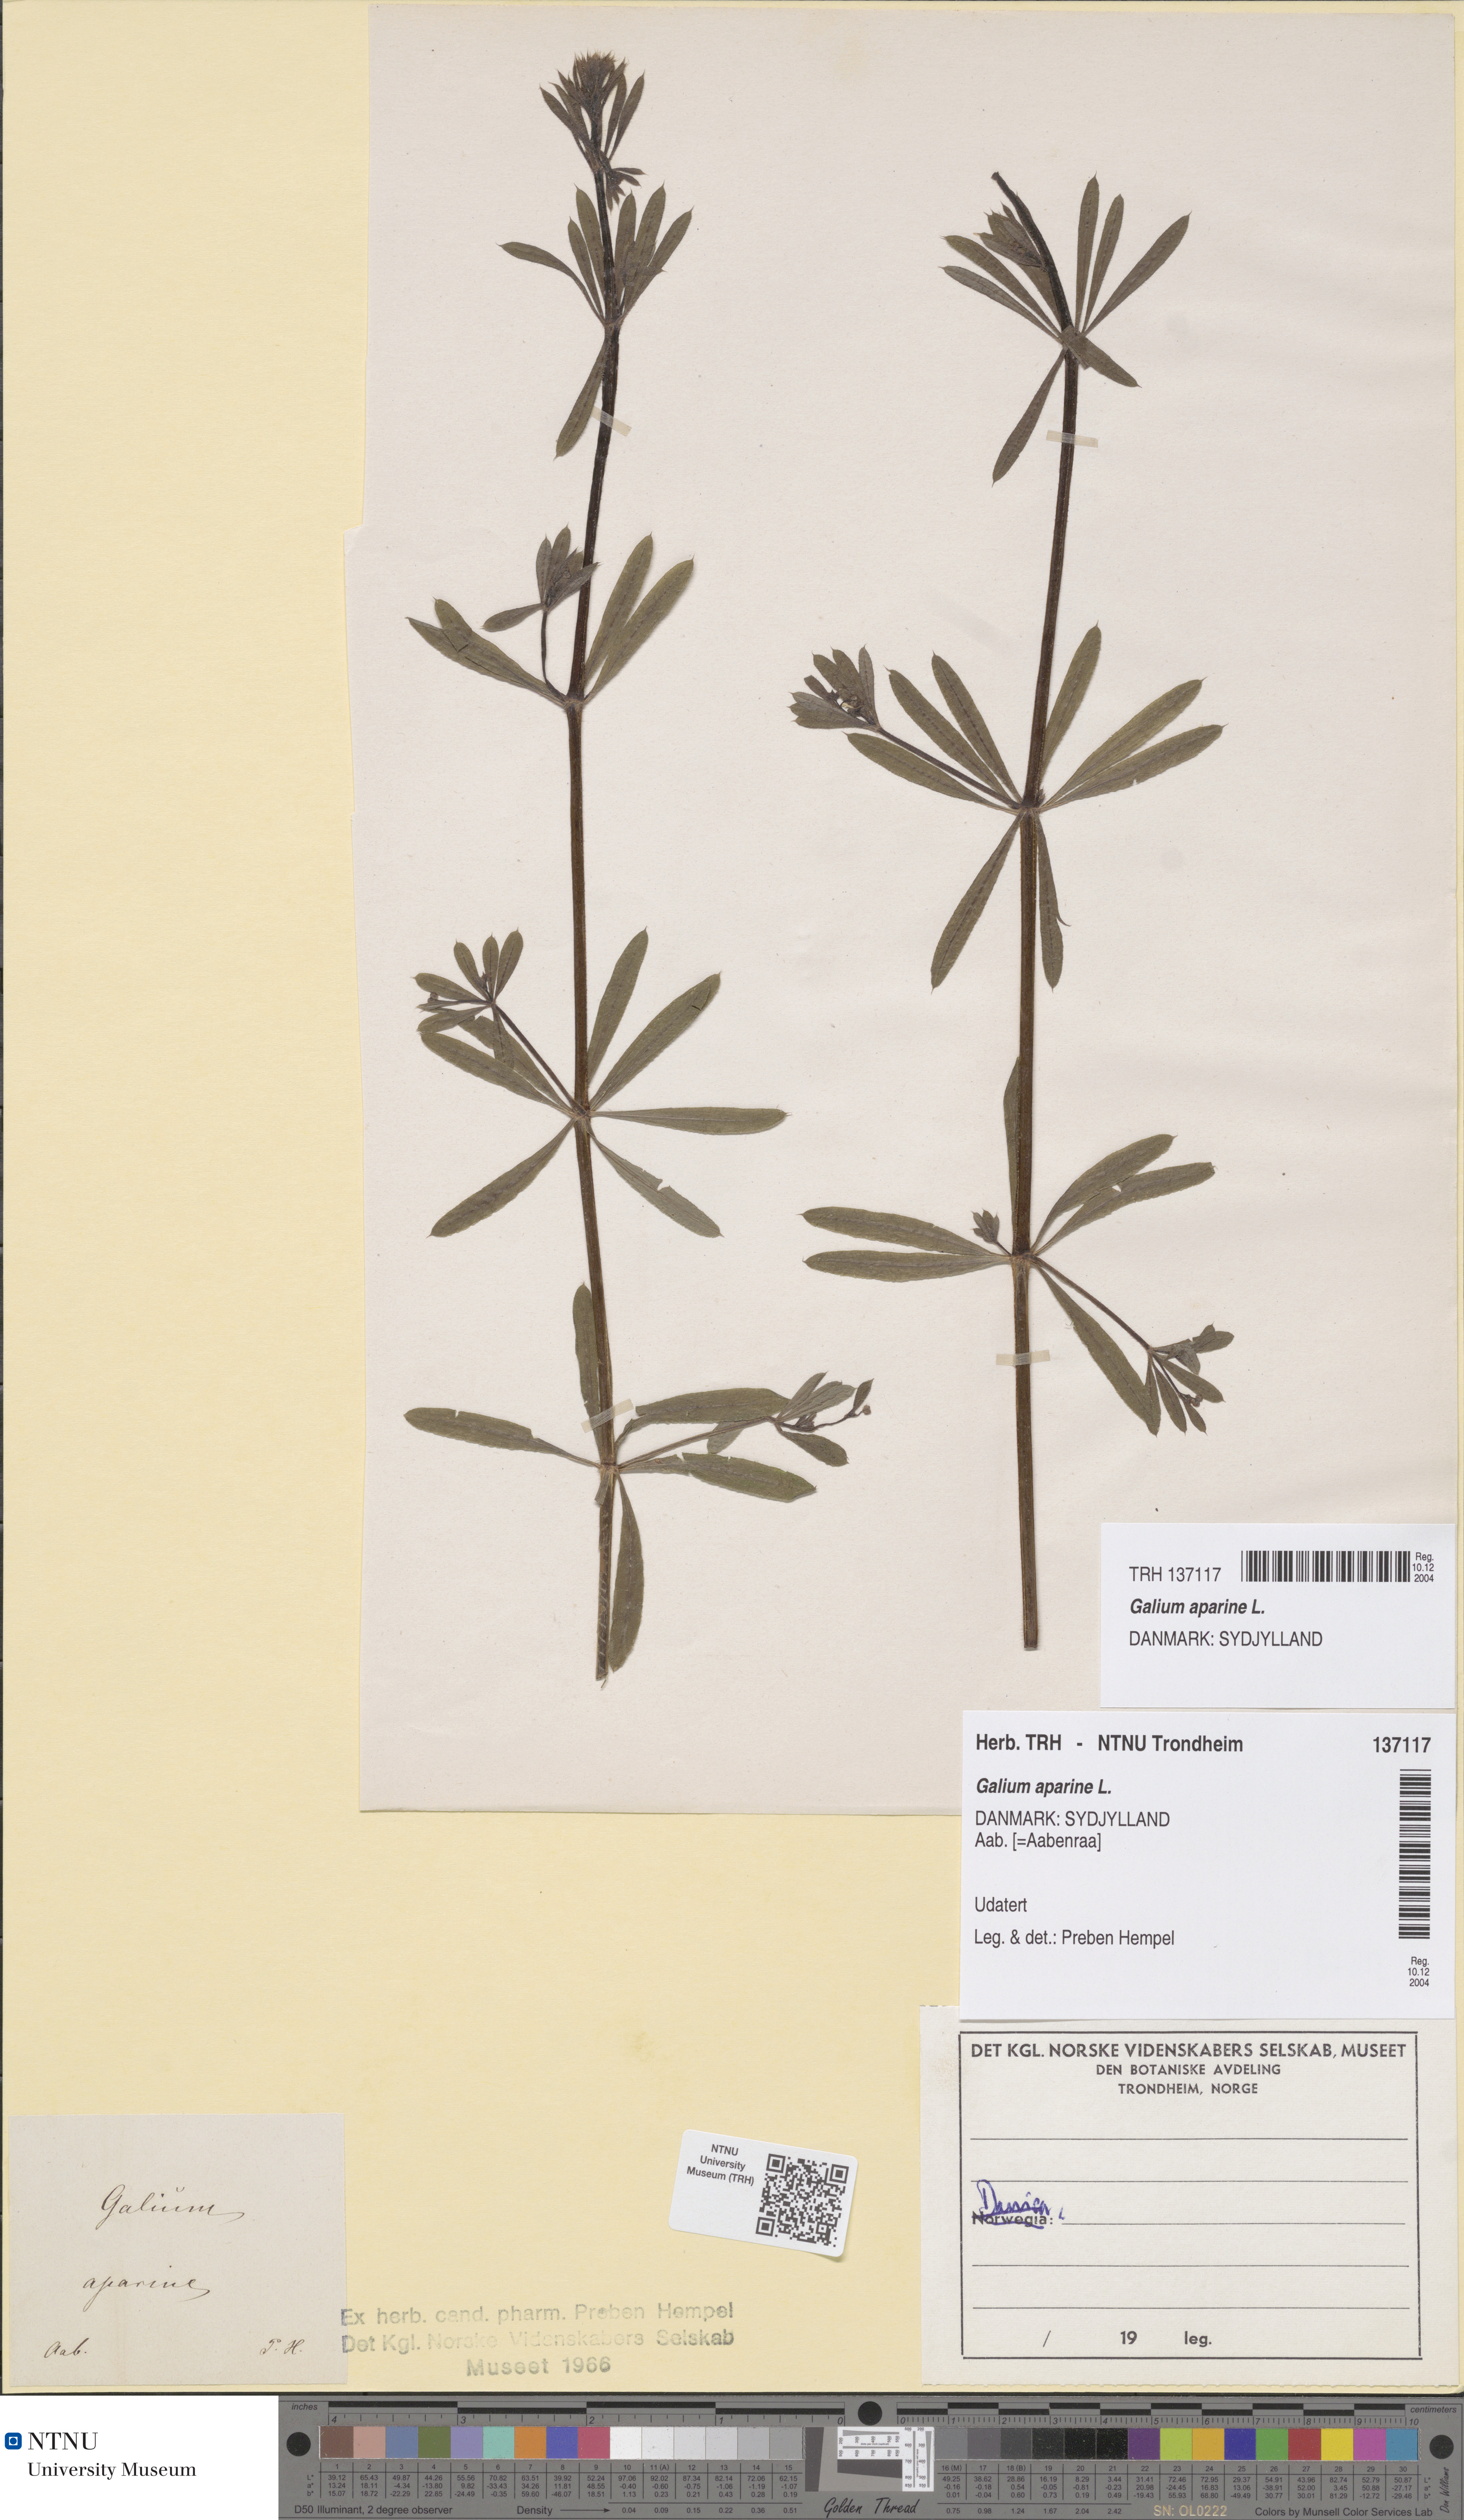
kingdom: Plantae
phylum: Tracheophyta
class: Magnoliopsida
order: Gentianales
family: Rubiaceae
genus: Galium
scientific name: Galium aparine
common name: Cleavers
